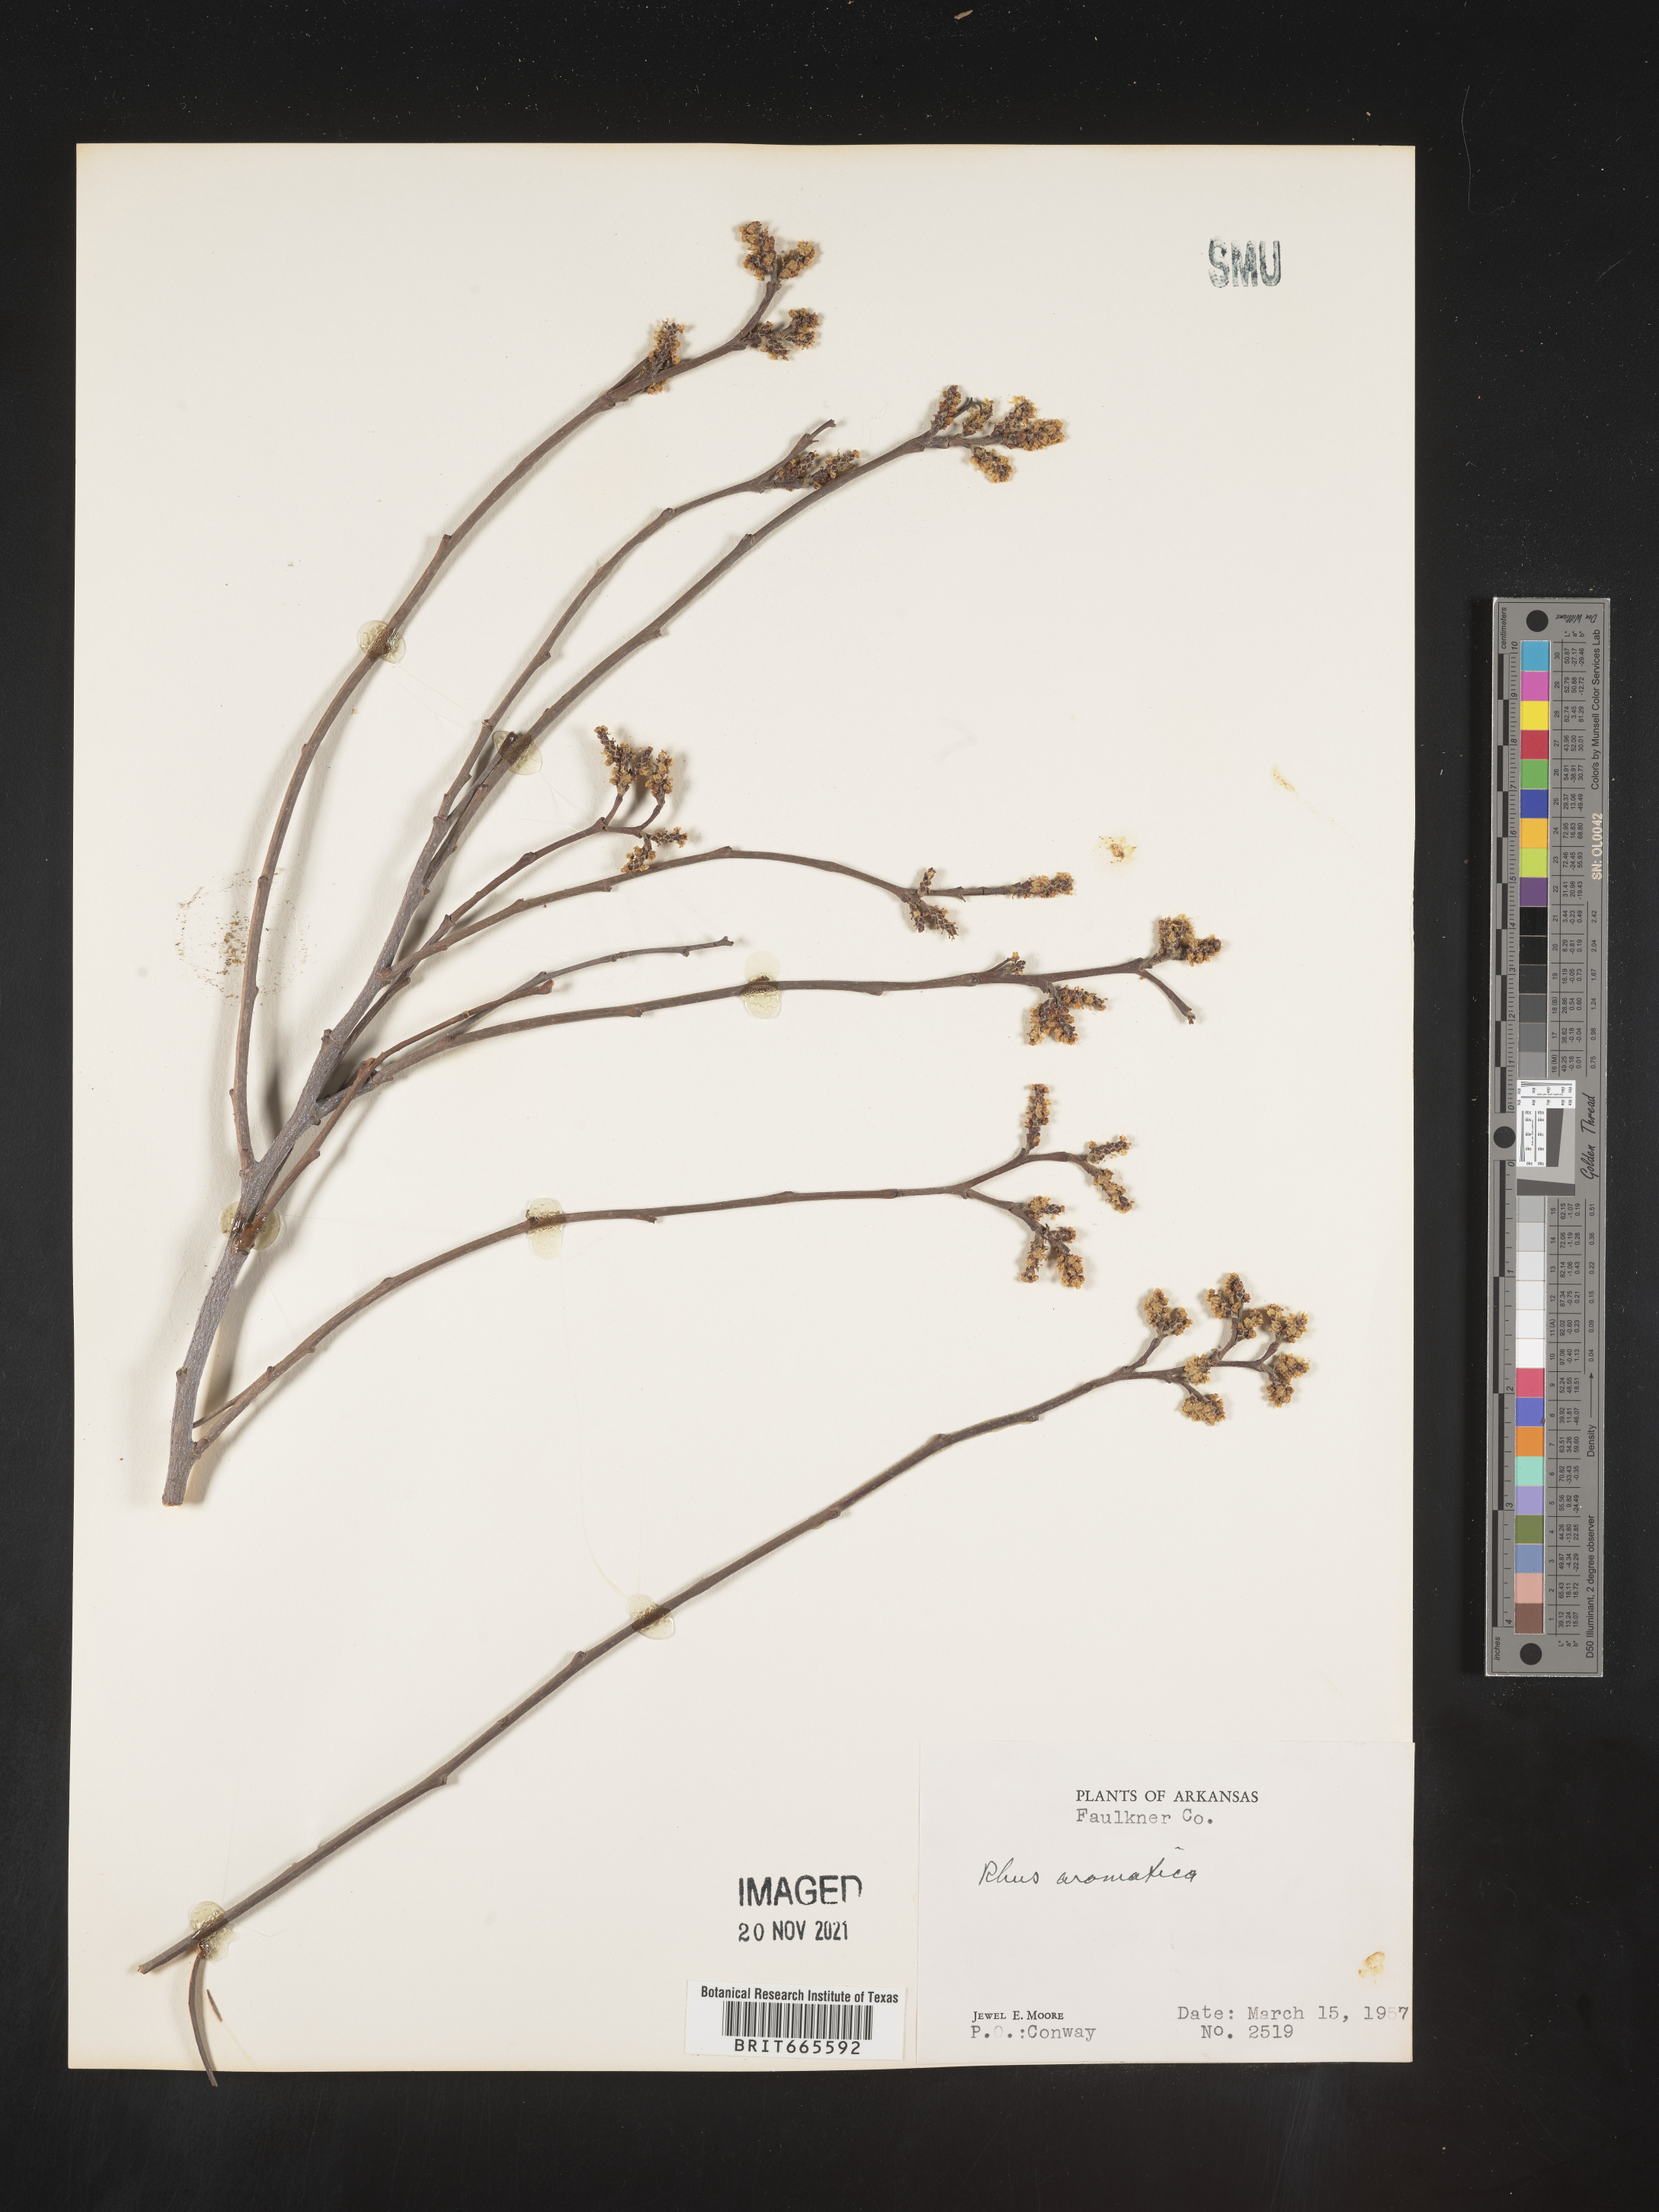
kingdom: Plantae
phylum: Tracheophyta
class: Magnoliopsida
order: Sapindales
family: Anacardiaceae
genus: Rhus
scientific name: Rhus aromatica
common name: Aromatic sumac
